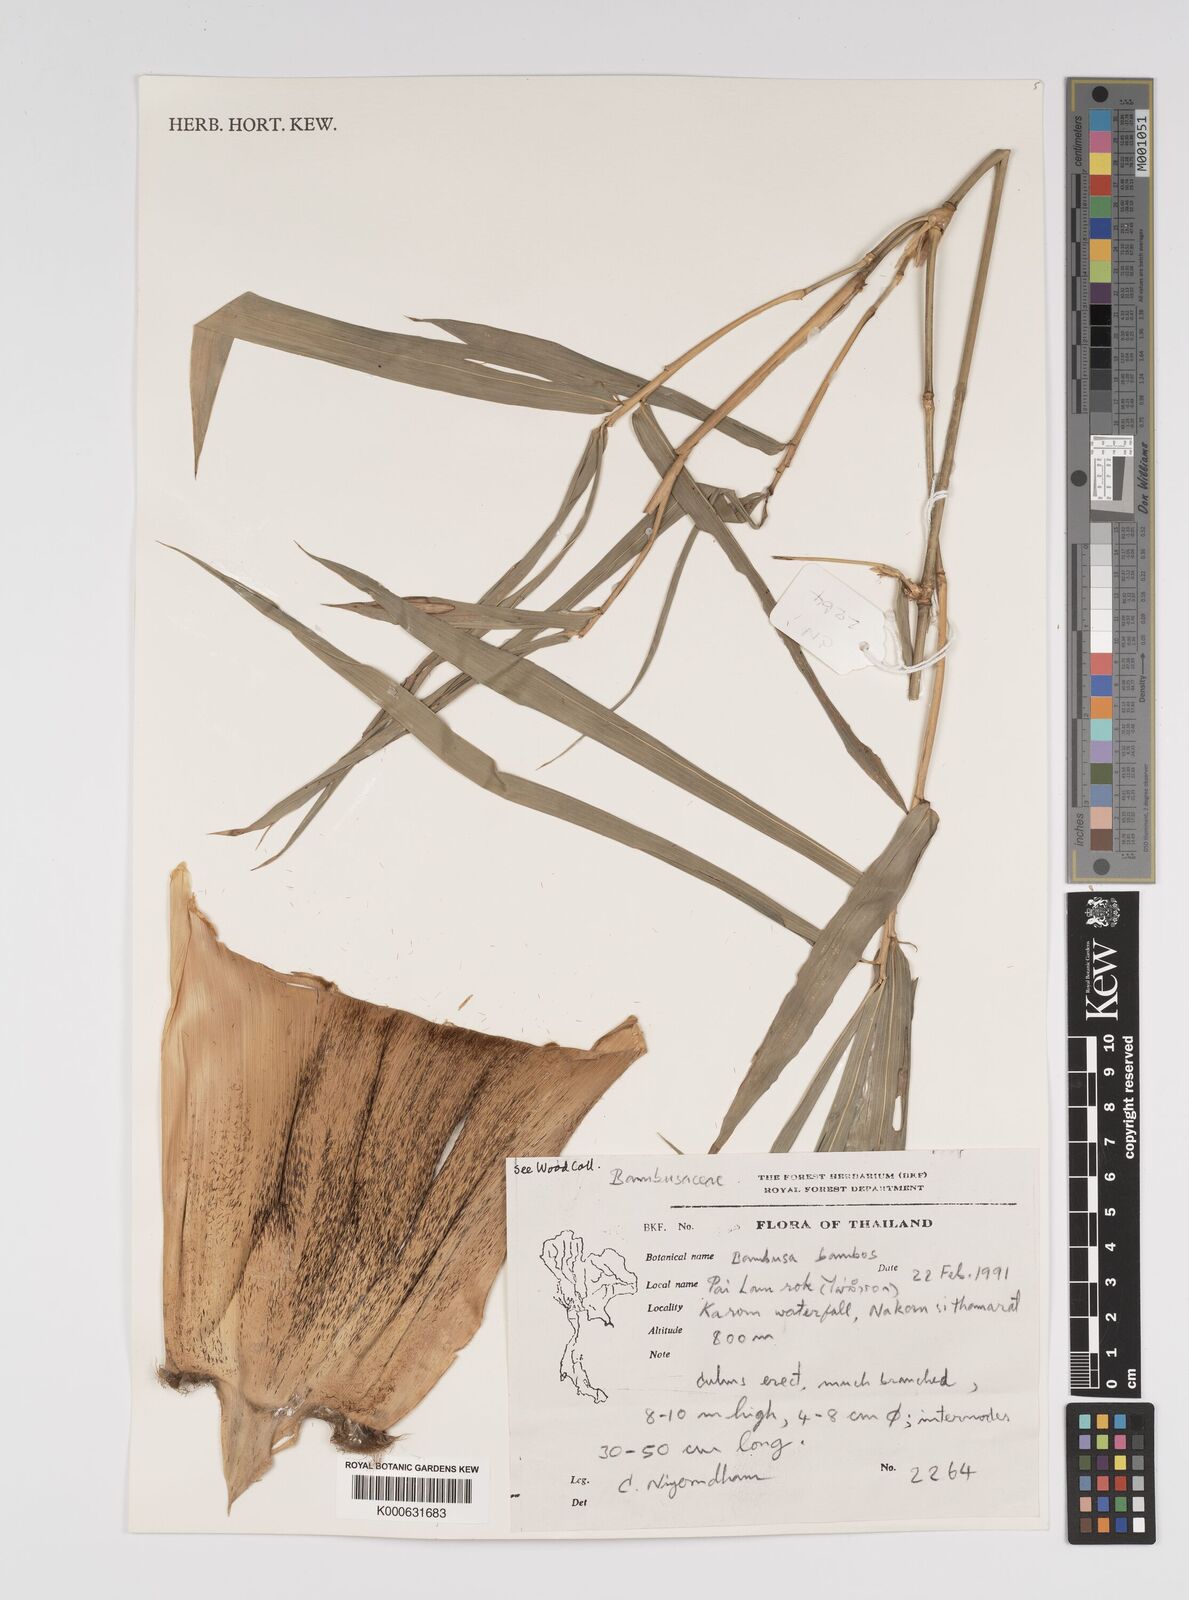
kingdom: Plantae
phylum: Tracheophyta
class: Liliopsida
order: Poales
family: Poaceae
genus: Bambusa
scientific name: Bambusa
